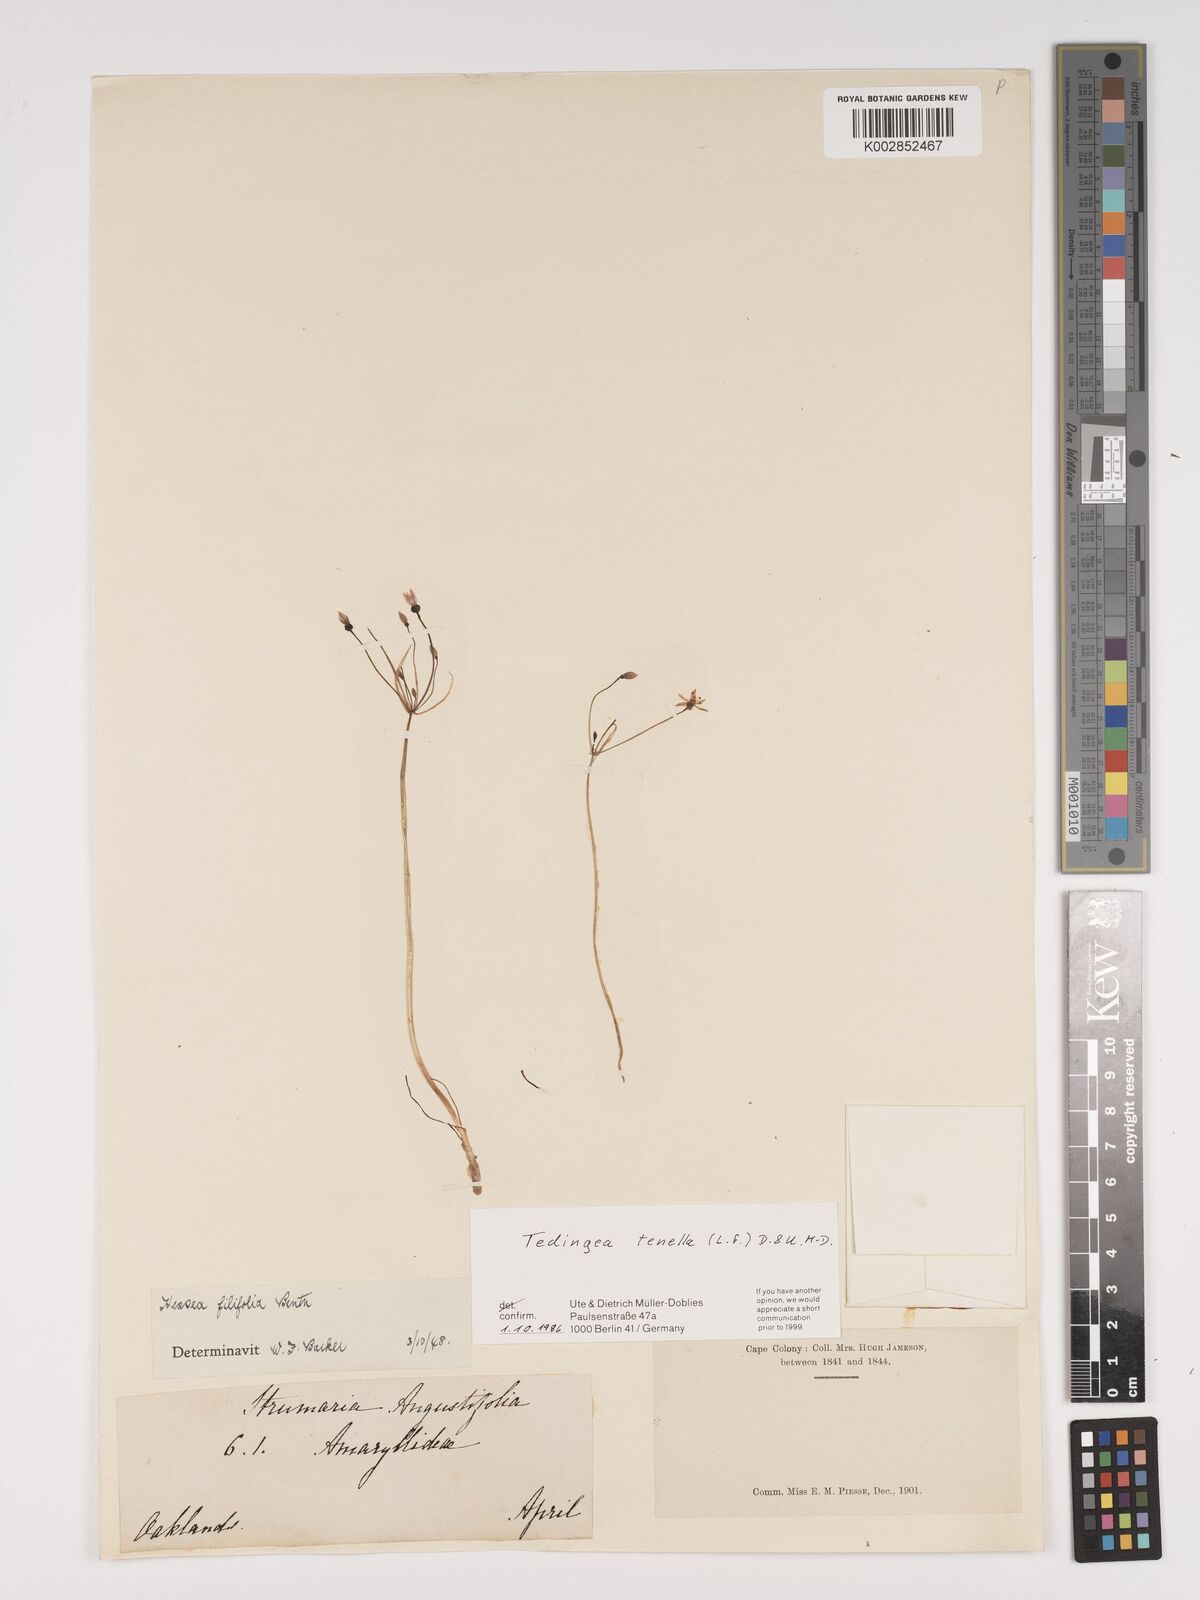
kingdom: Plantae
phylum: Tracheophyta
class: Liliopsida
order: Asparagales
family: Amaryllidaceae
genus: Strumaria
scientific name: Strumaria tenella
